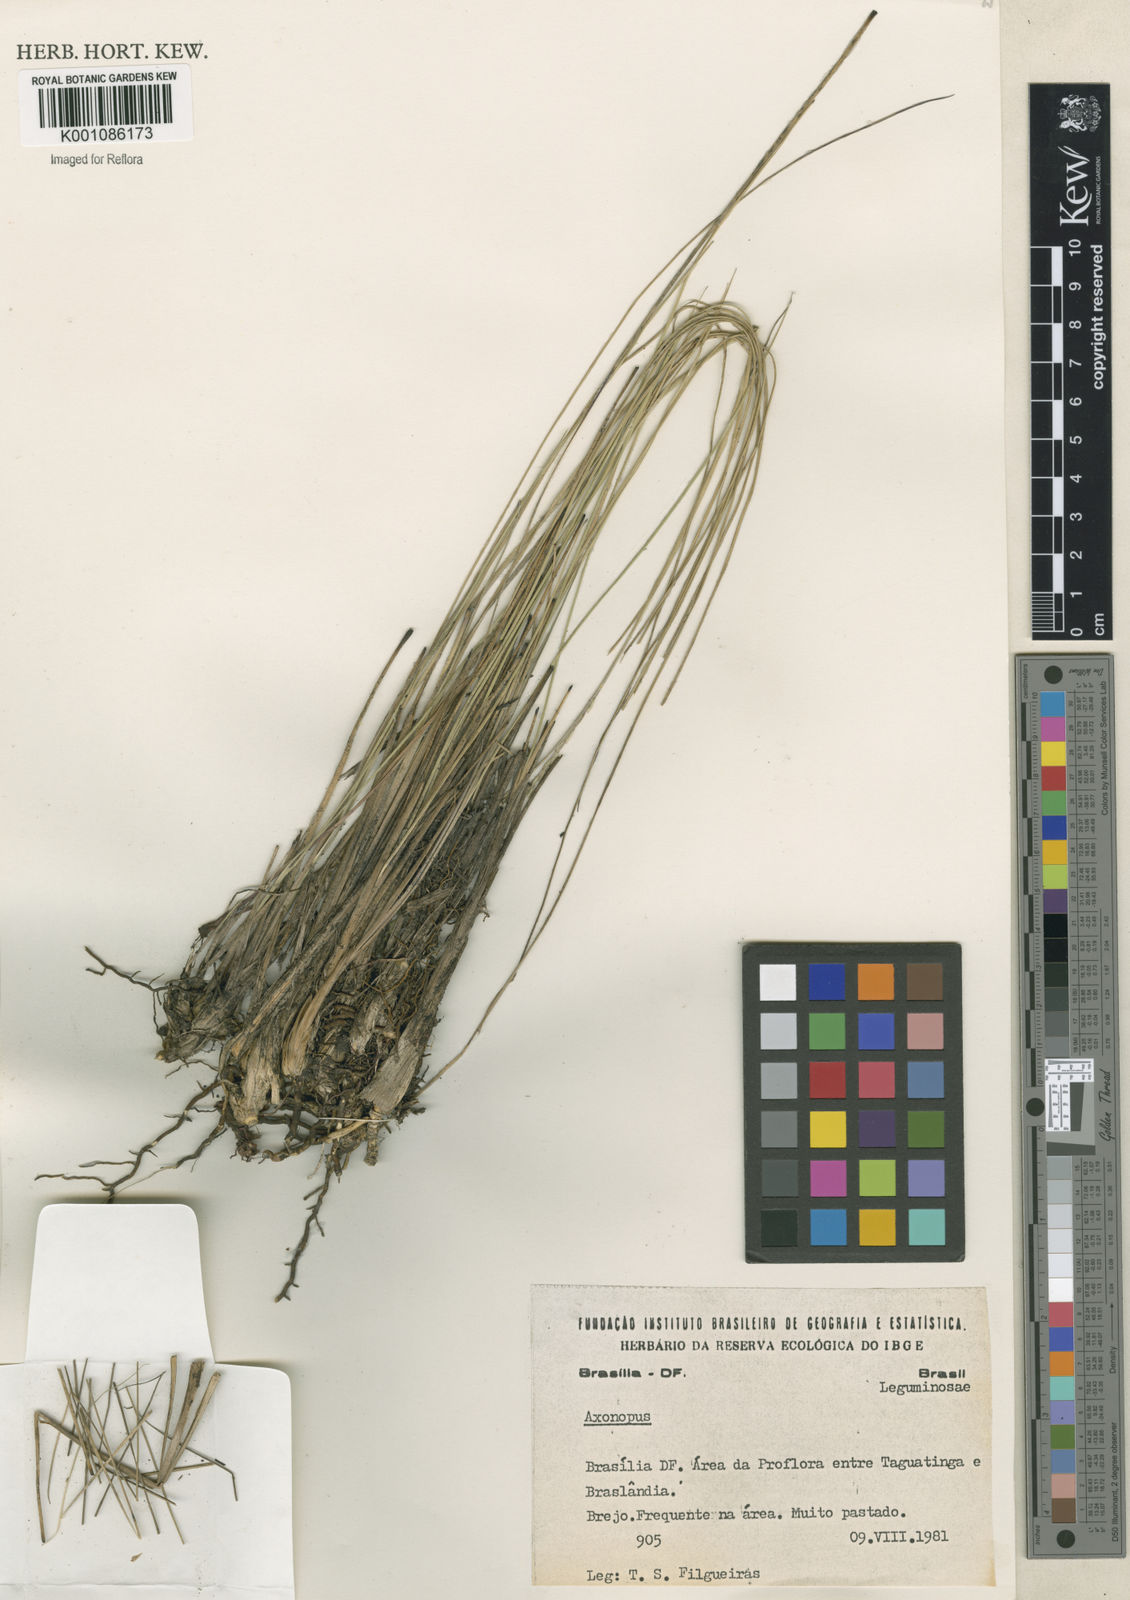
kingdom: Plantae
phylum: Tracheophyta
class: Liliopsida
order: Poales
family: Poaceae
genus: Axonopus
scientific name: Axonopus
